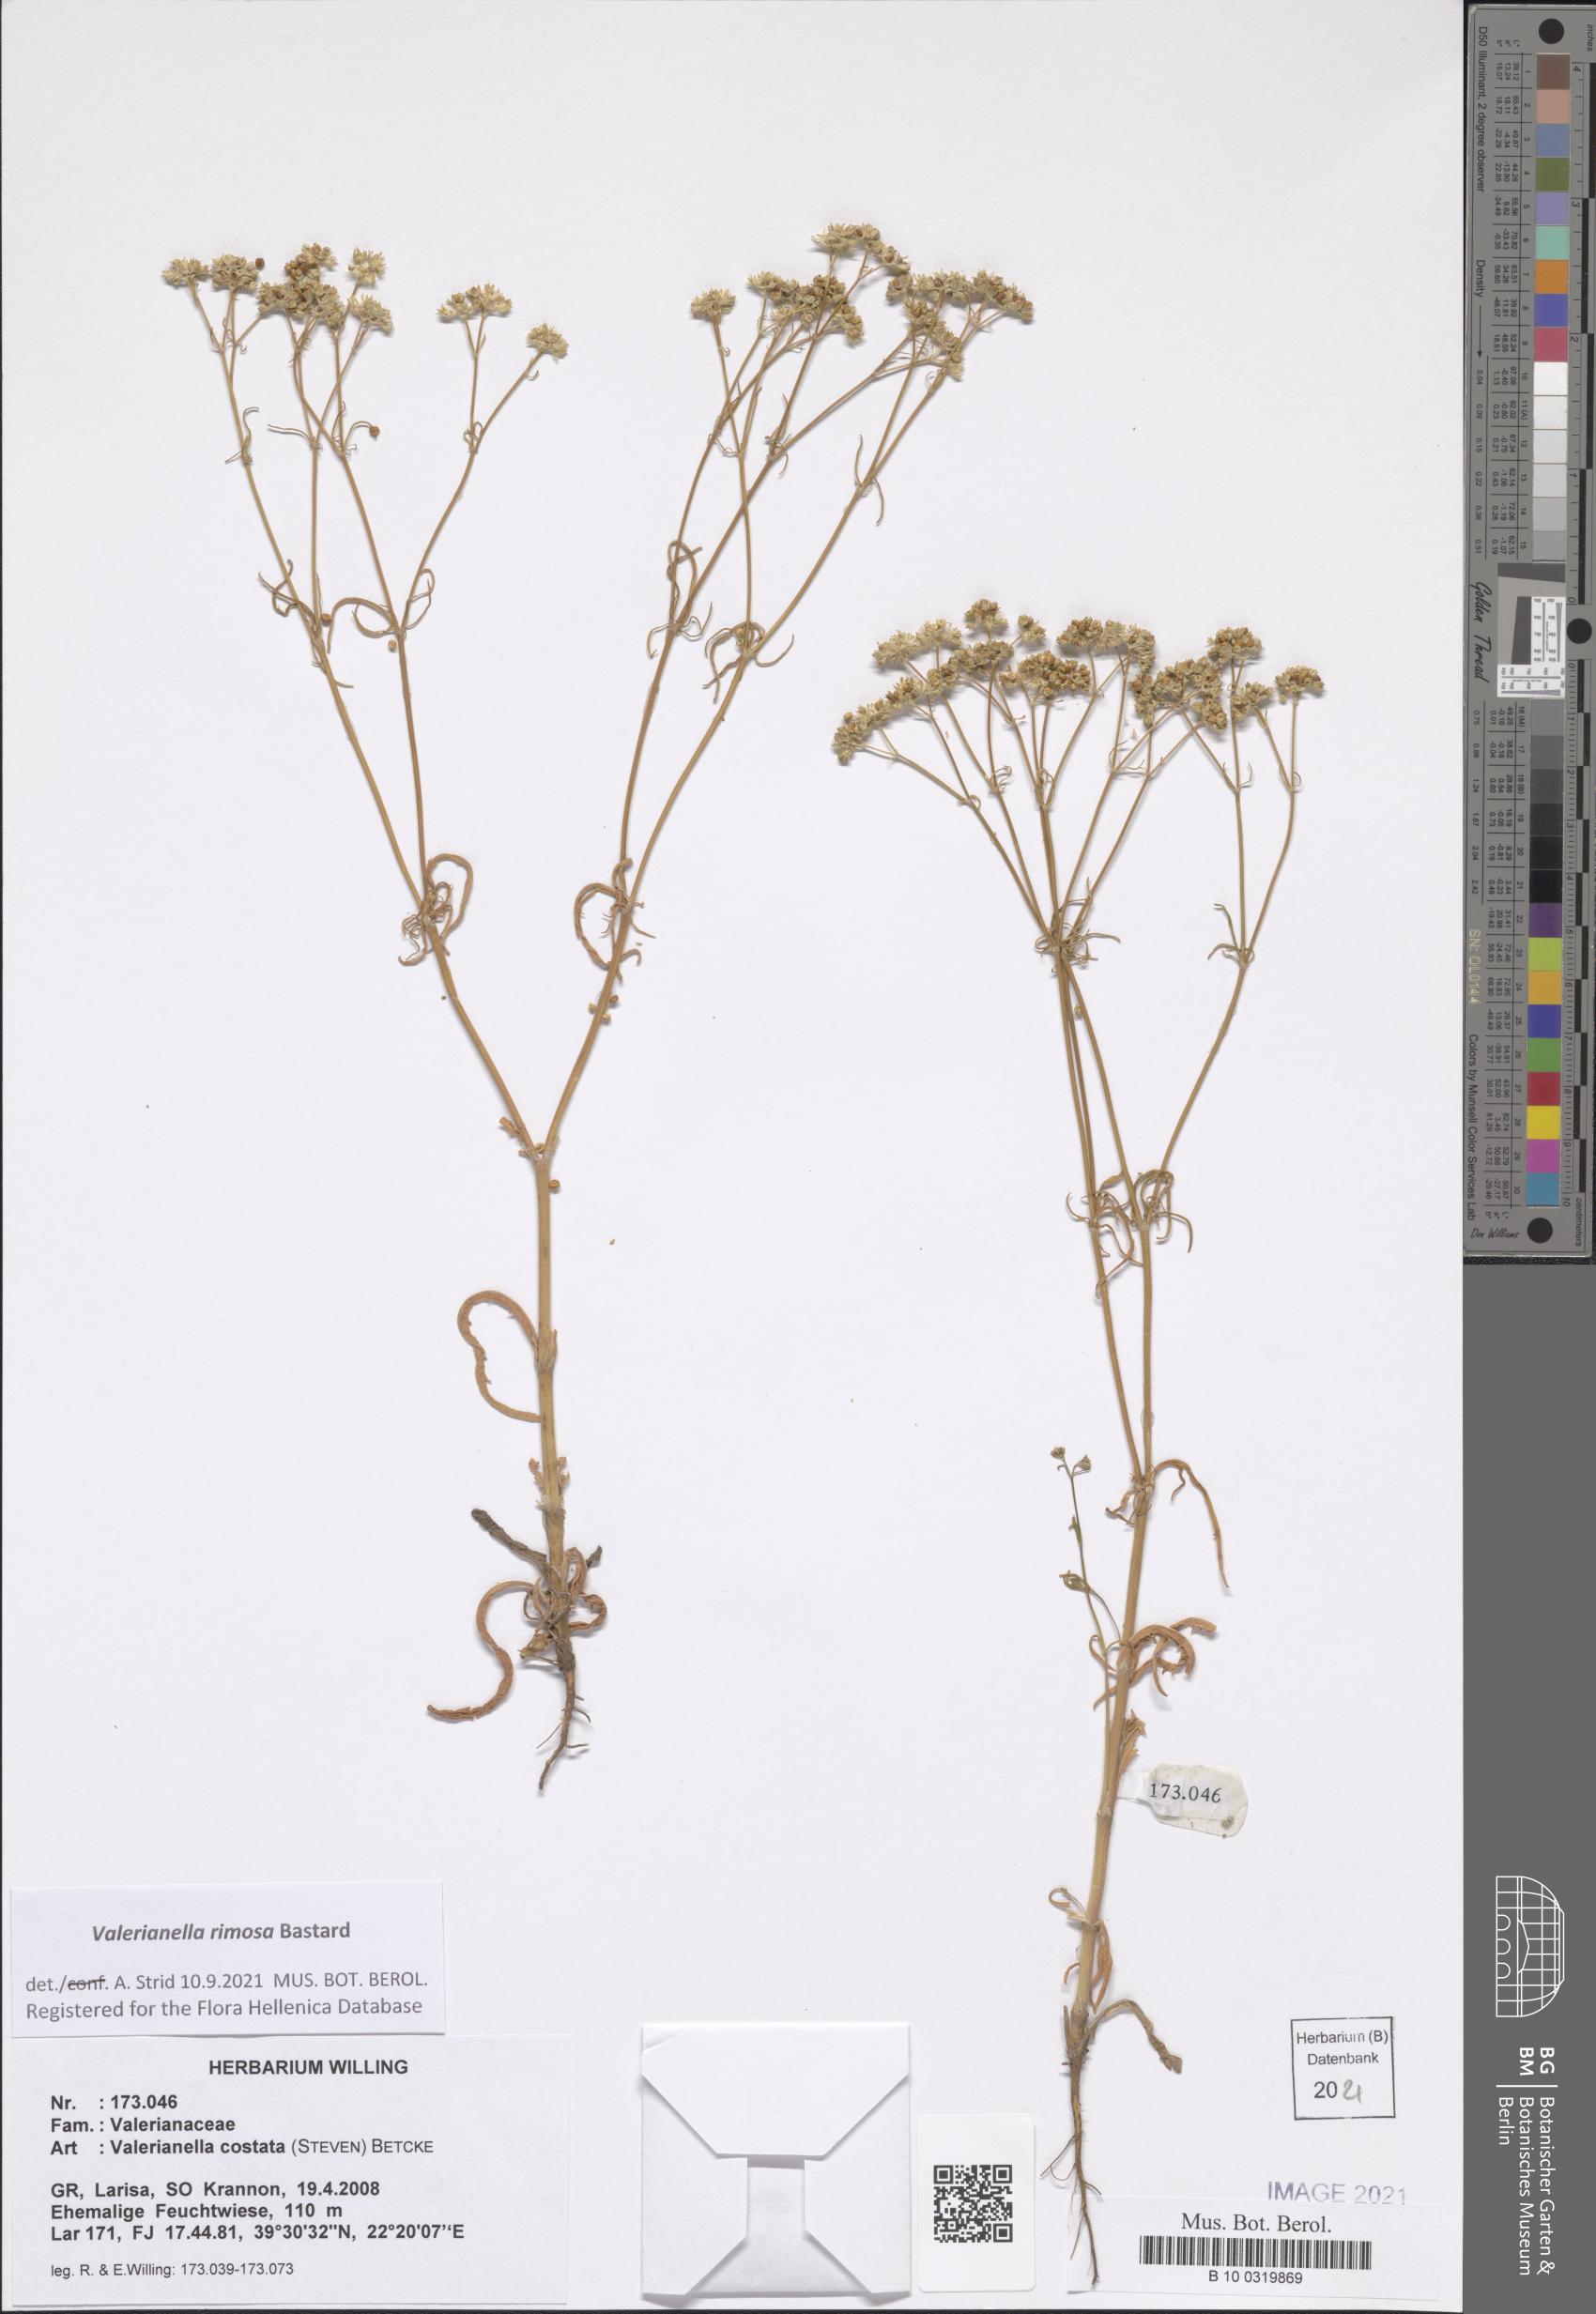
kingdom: Plantae
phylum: Tracheophyta
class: Magnoliopsida
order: Dipsacales
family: Caprifoliaceae
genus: Valerianella
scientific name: Valerianella rimosa
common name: Broad-fruited cornsalad
